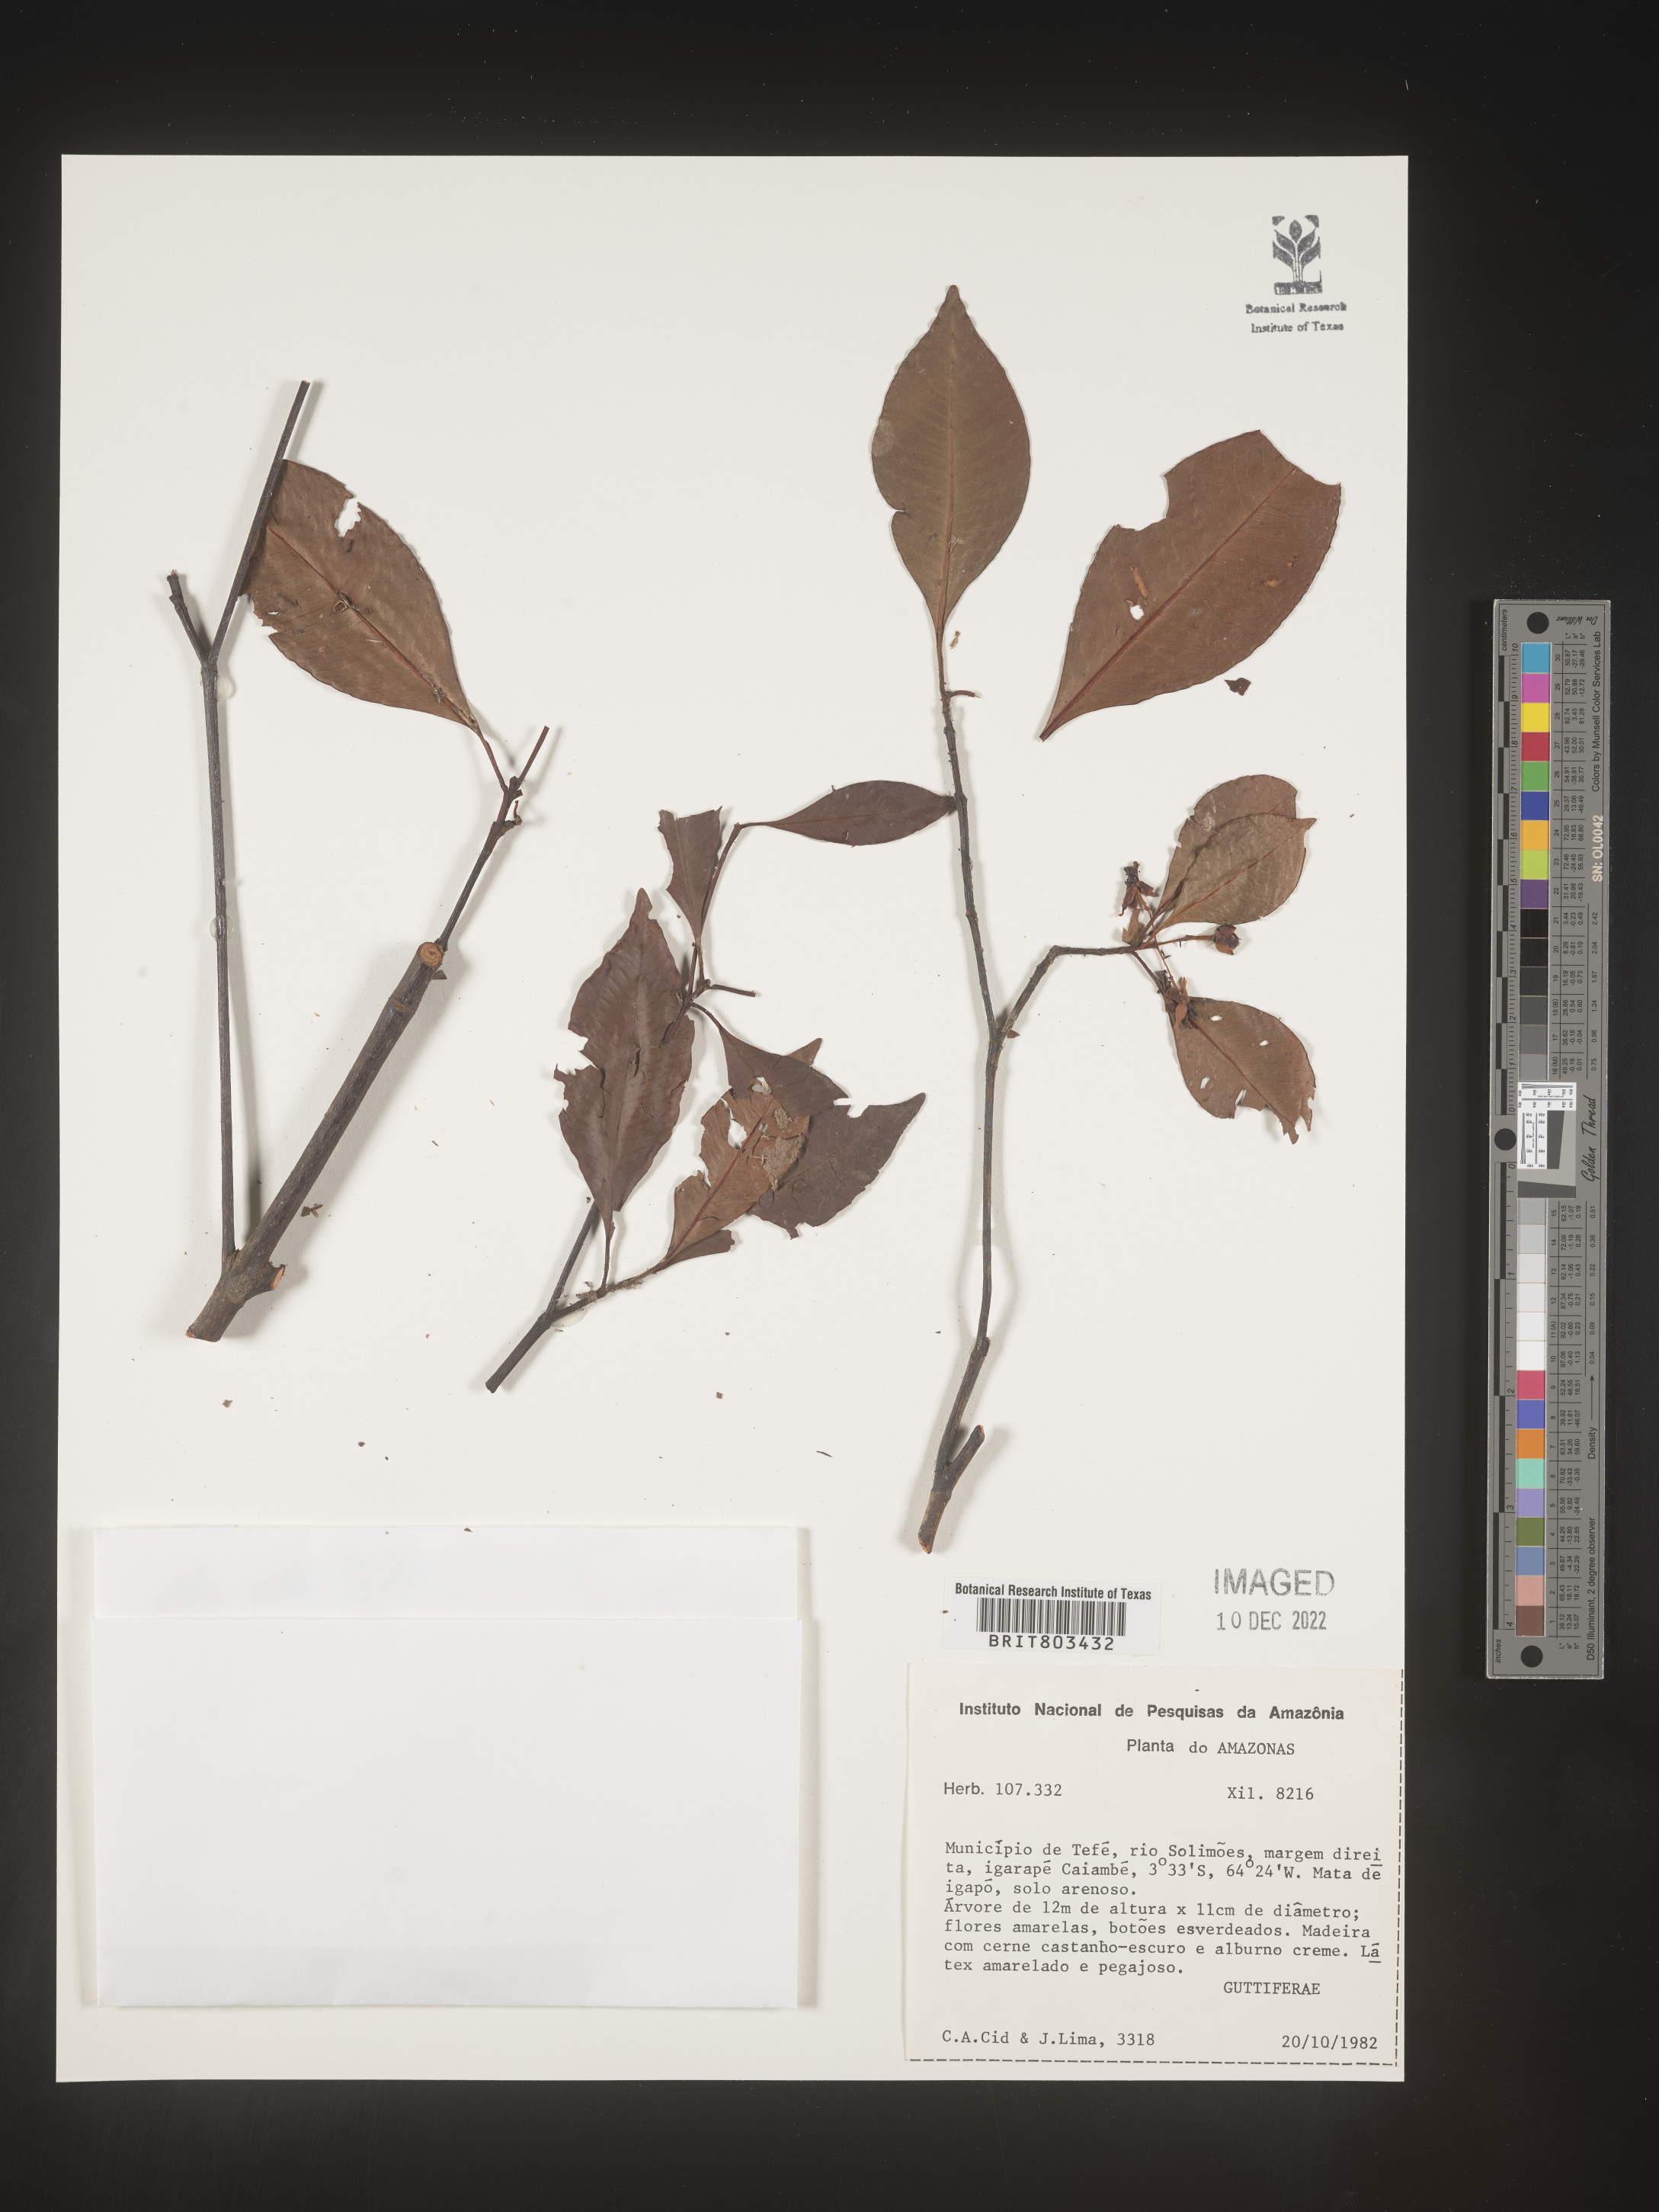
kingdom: Plantae
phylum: Tracheophyta
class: Magnoliopsida
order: Malpighiales
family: Clusiaceae
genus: Tovomita
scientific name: Tovomita
